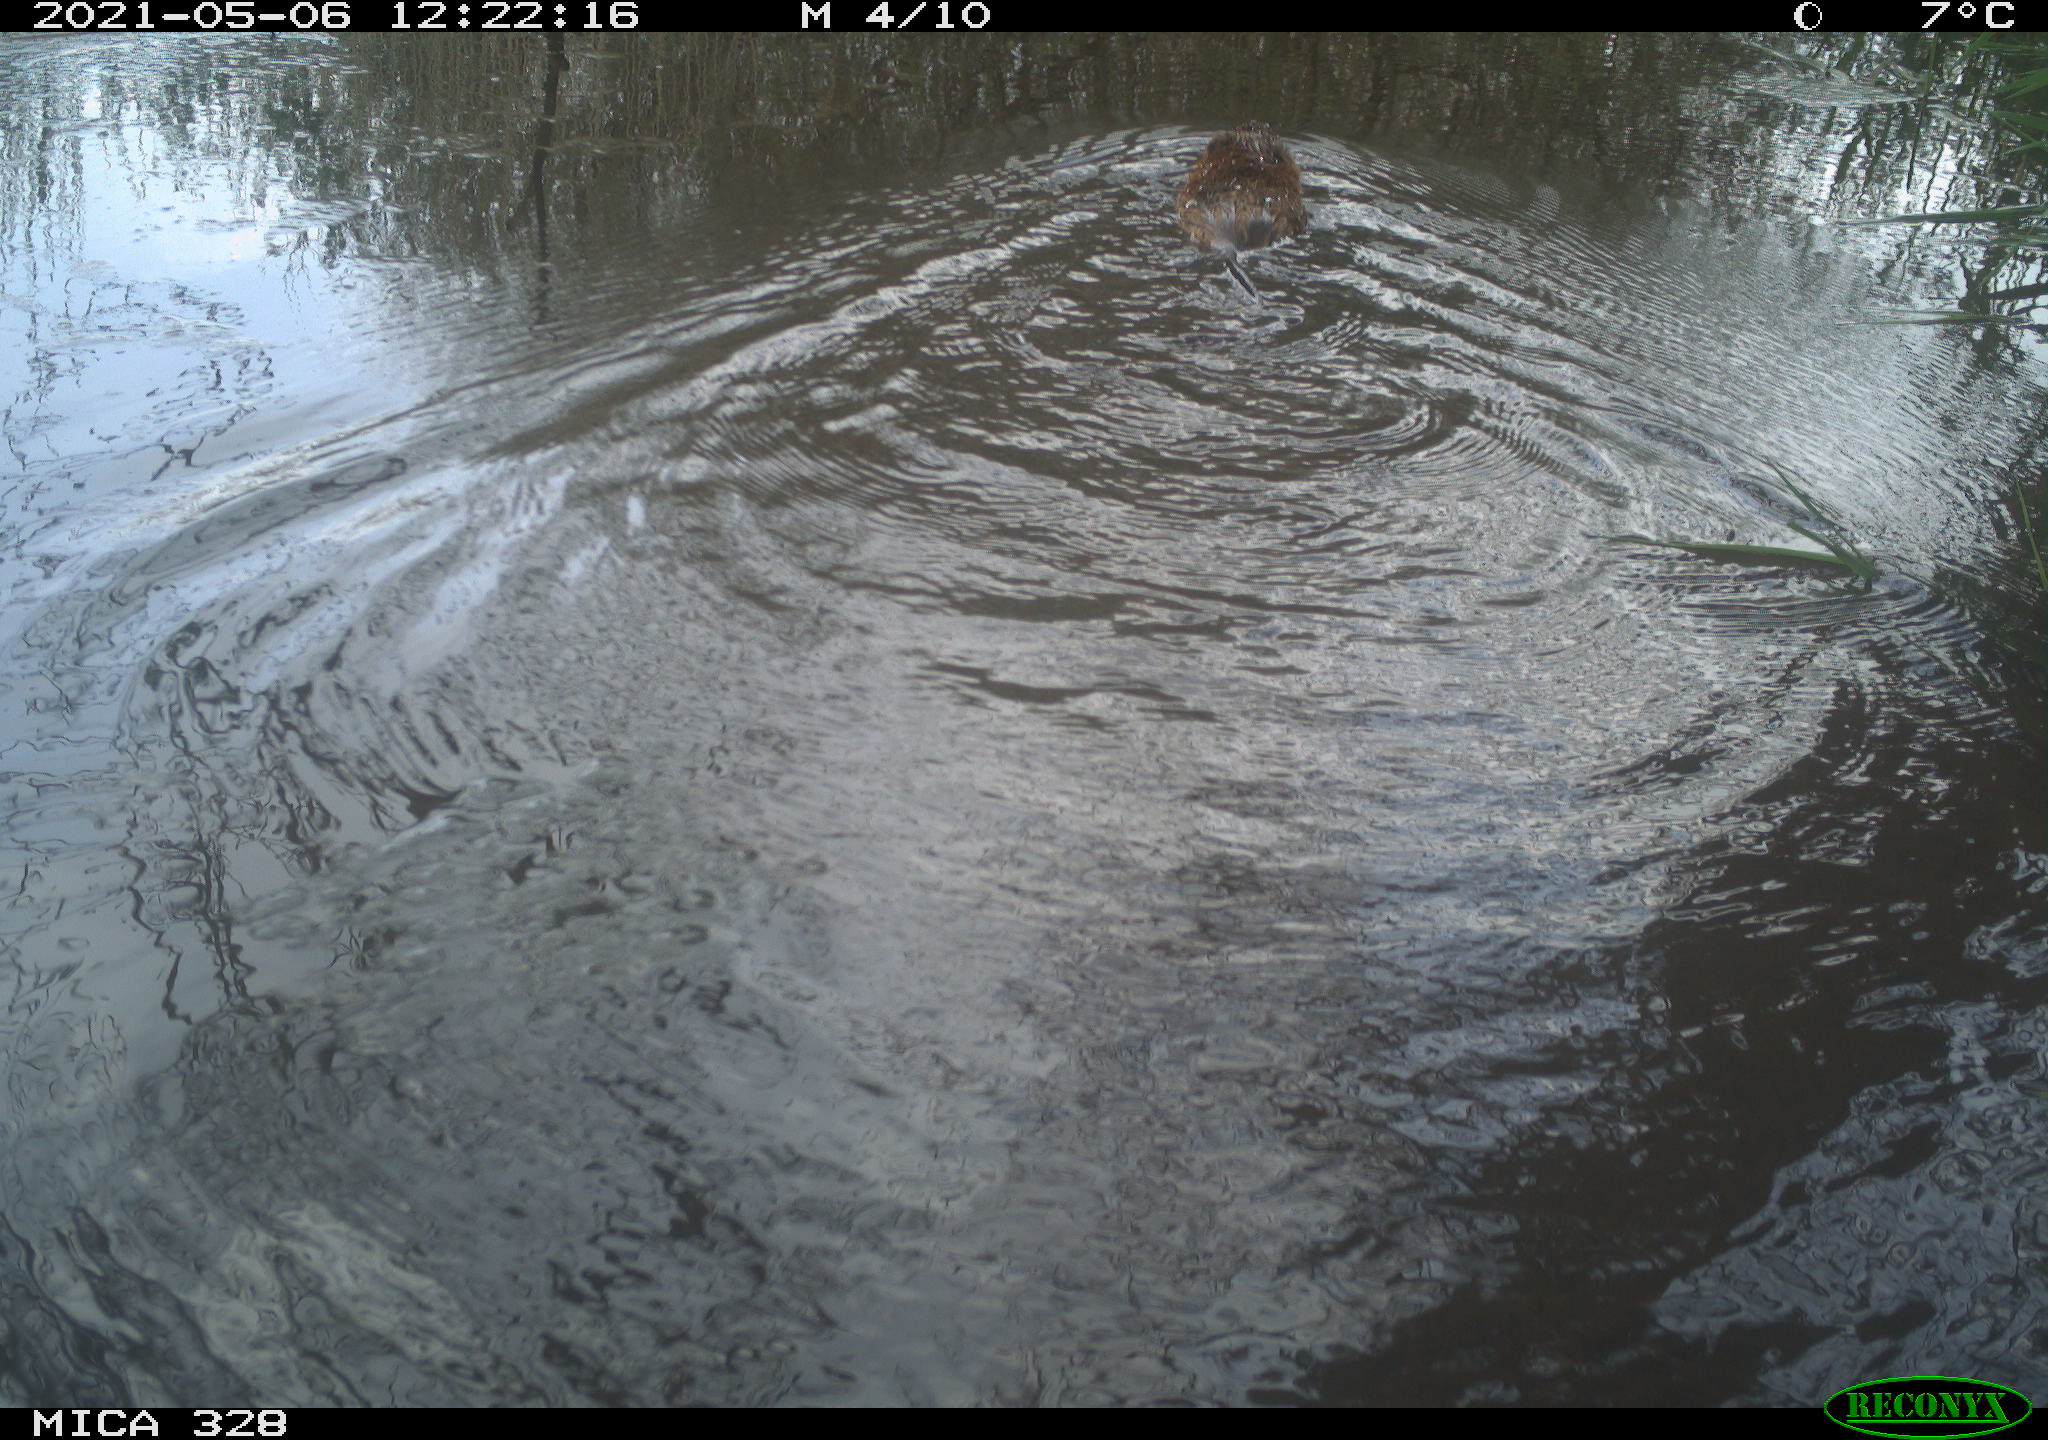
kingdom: Animalia
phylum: Chordata
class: Mammalia
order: Rodentia
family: Cricetidae
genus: Ondatra
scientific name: Ondatra zibethicus
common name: Muskrat
